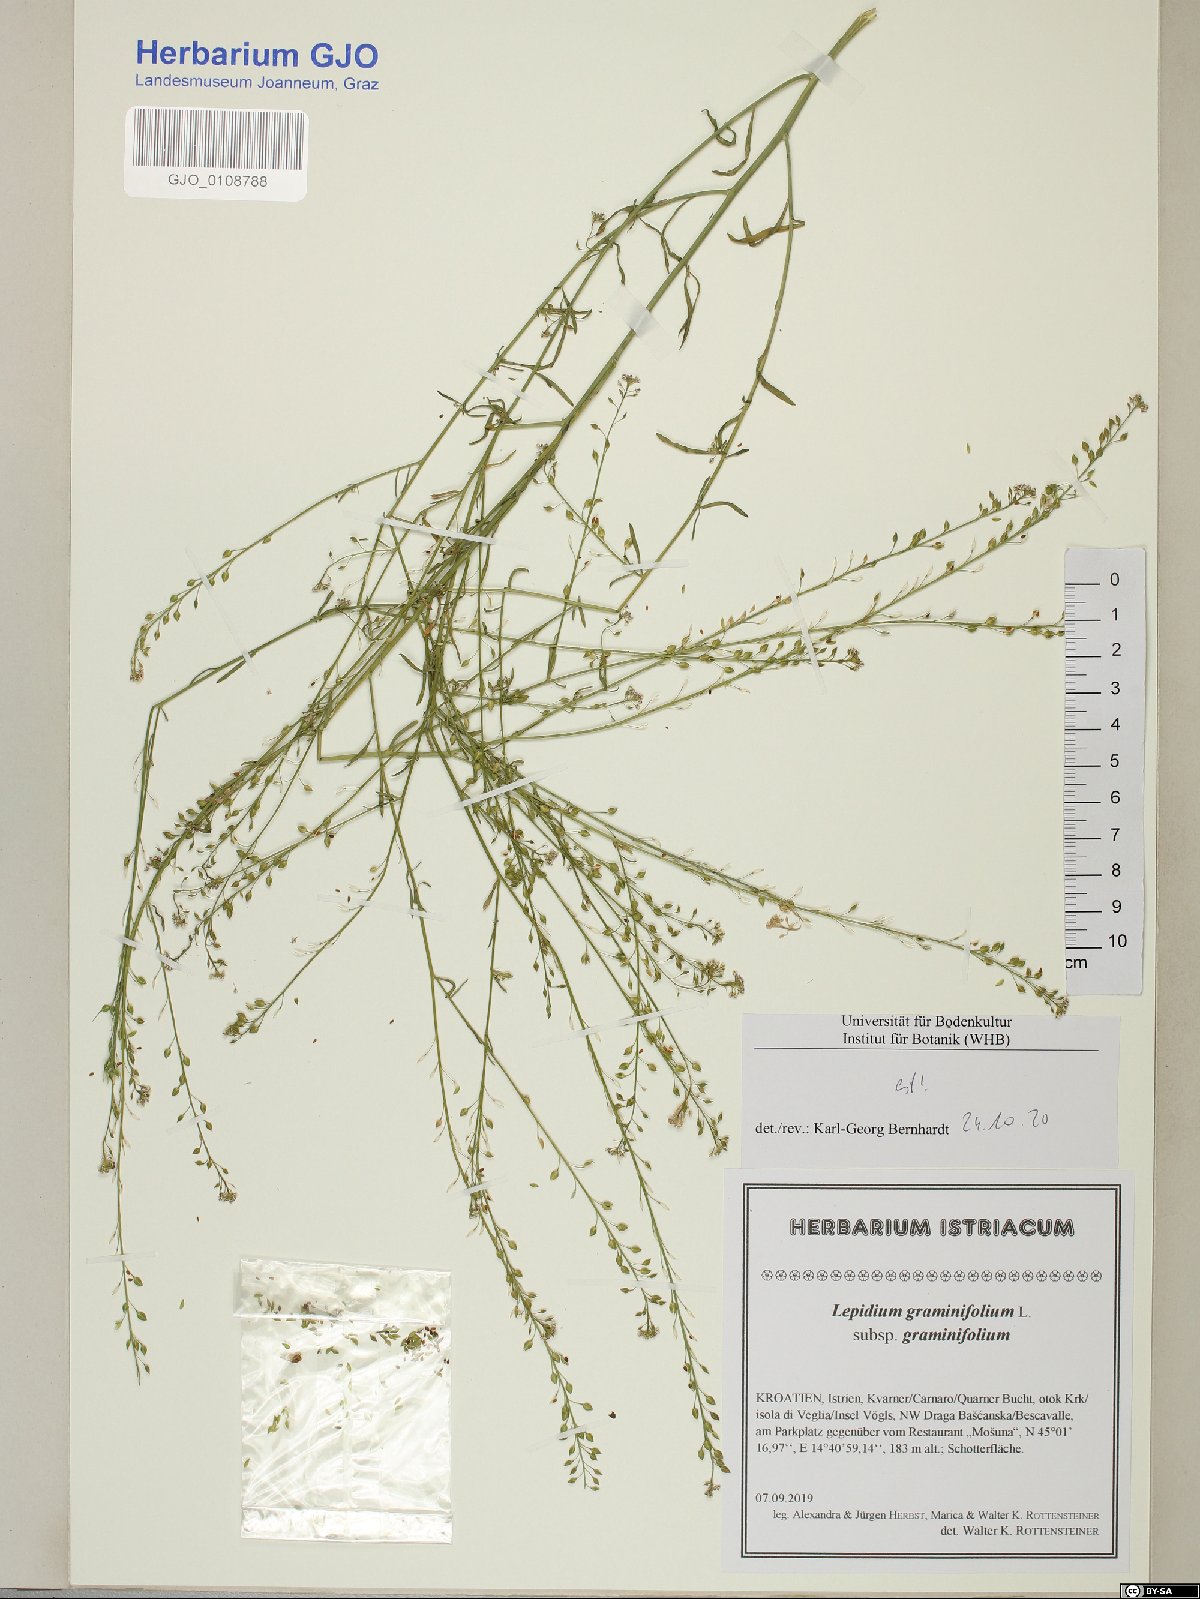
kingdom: Plantae
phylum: Tracheophyta
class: Magnoliopsida
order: Brassicales
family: Brassicaceae
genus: Lepidium
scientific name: Lepidium graminifolium
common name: Tall pepperwort
